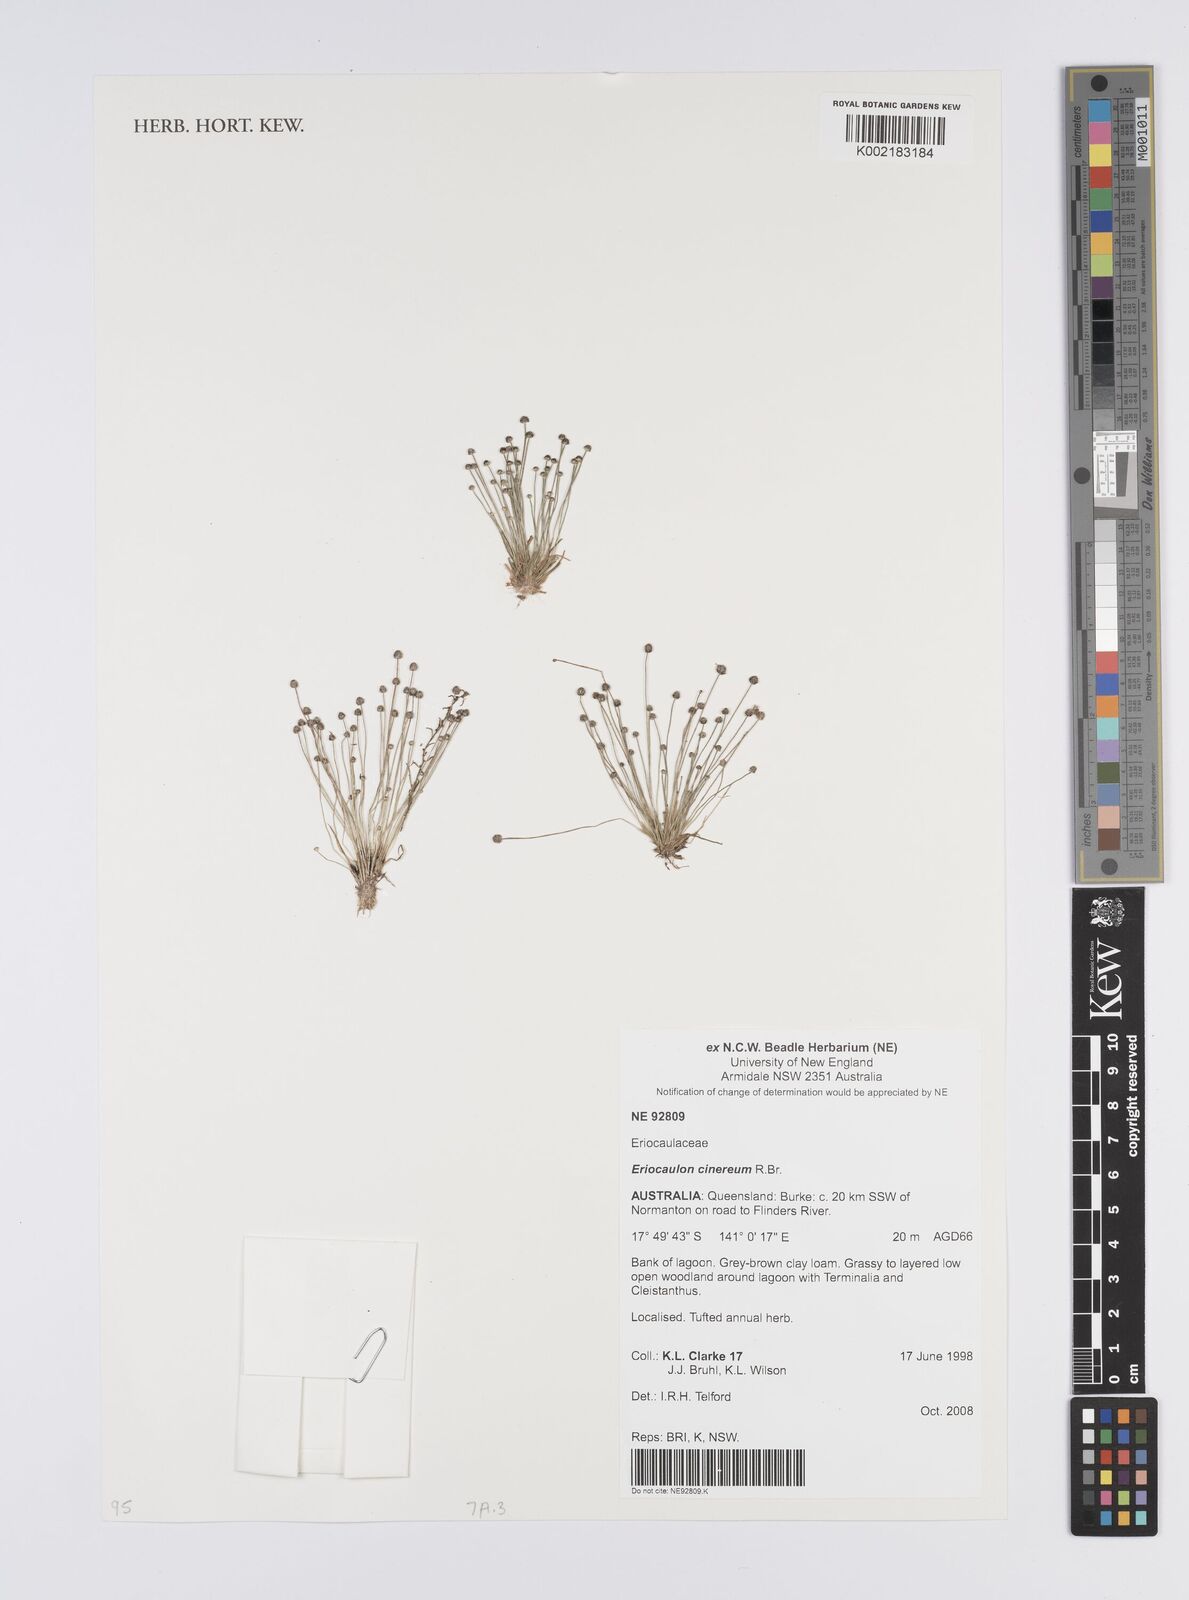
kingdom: Plantae
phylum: Tracheophyta
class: Liliopsida
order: Poales
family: Eriocaulaceae
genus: Eriocaulon
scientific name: Eriocaulon cinereum
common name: Ashy pipewort
